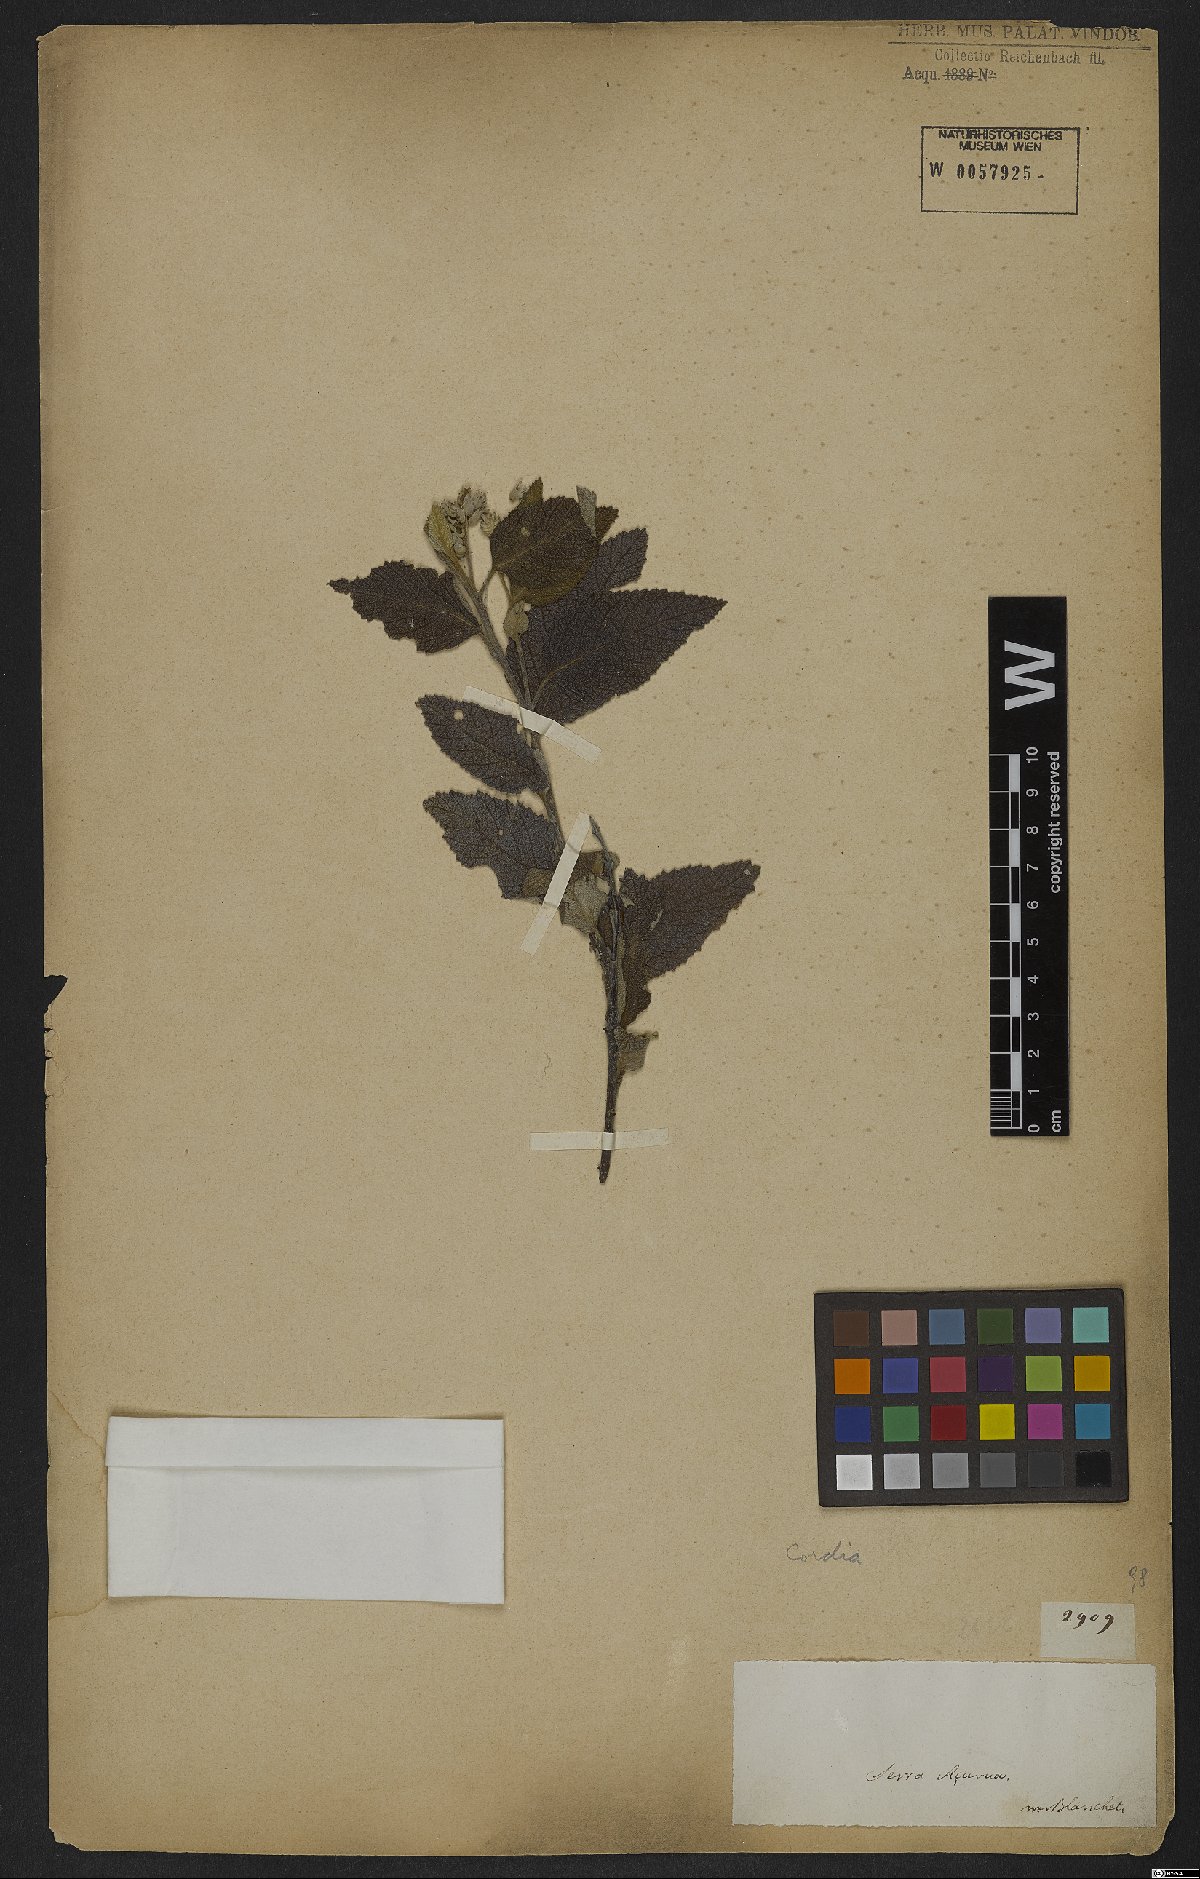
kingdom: Plantae
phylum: Tracheophyta
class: Magnoliopsida
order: Boraginales
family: Cordiaceae
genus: Cordia
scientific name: Cordia
